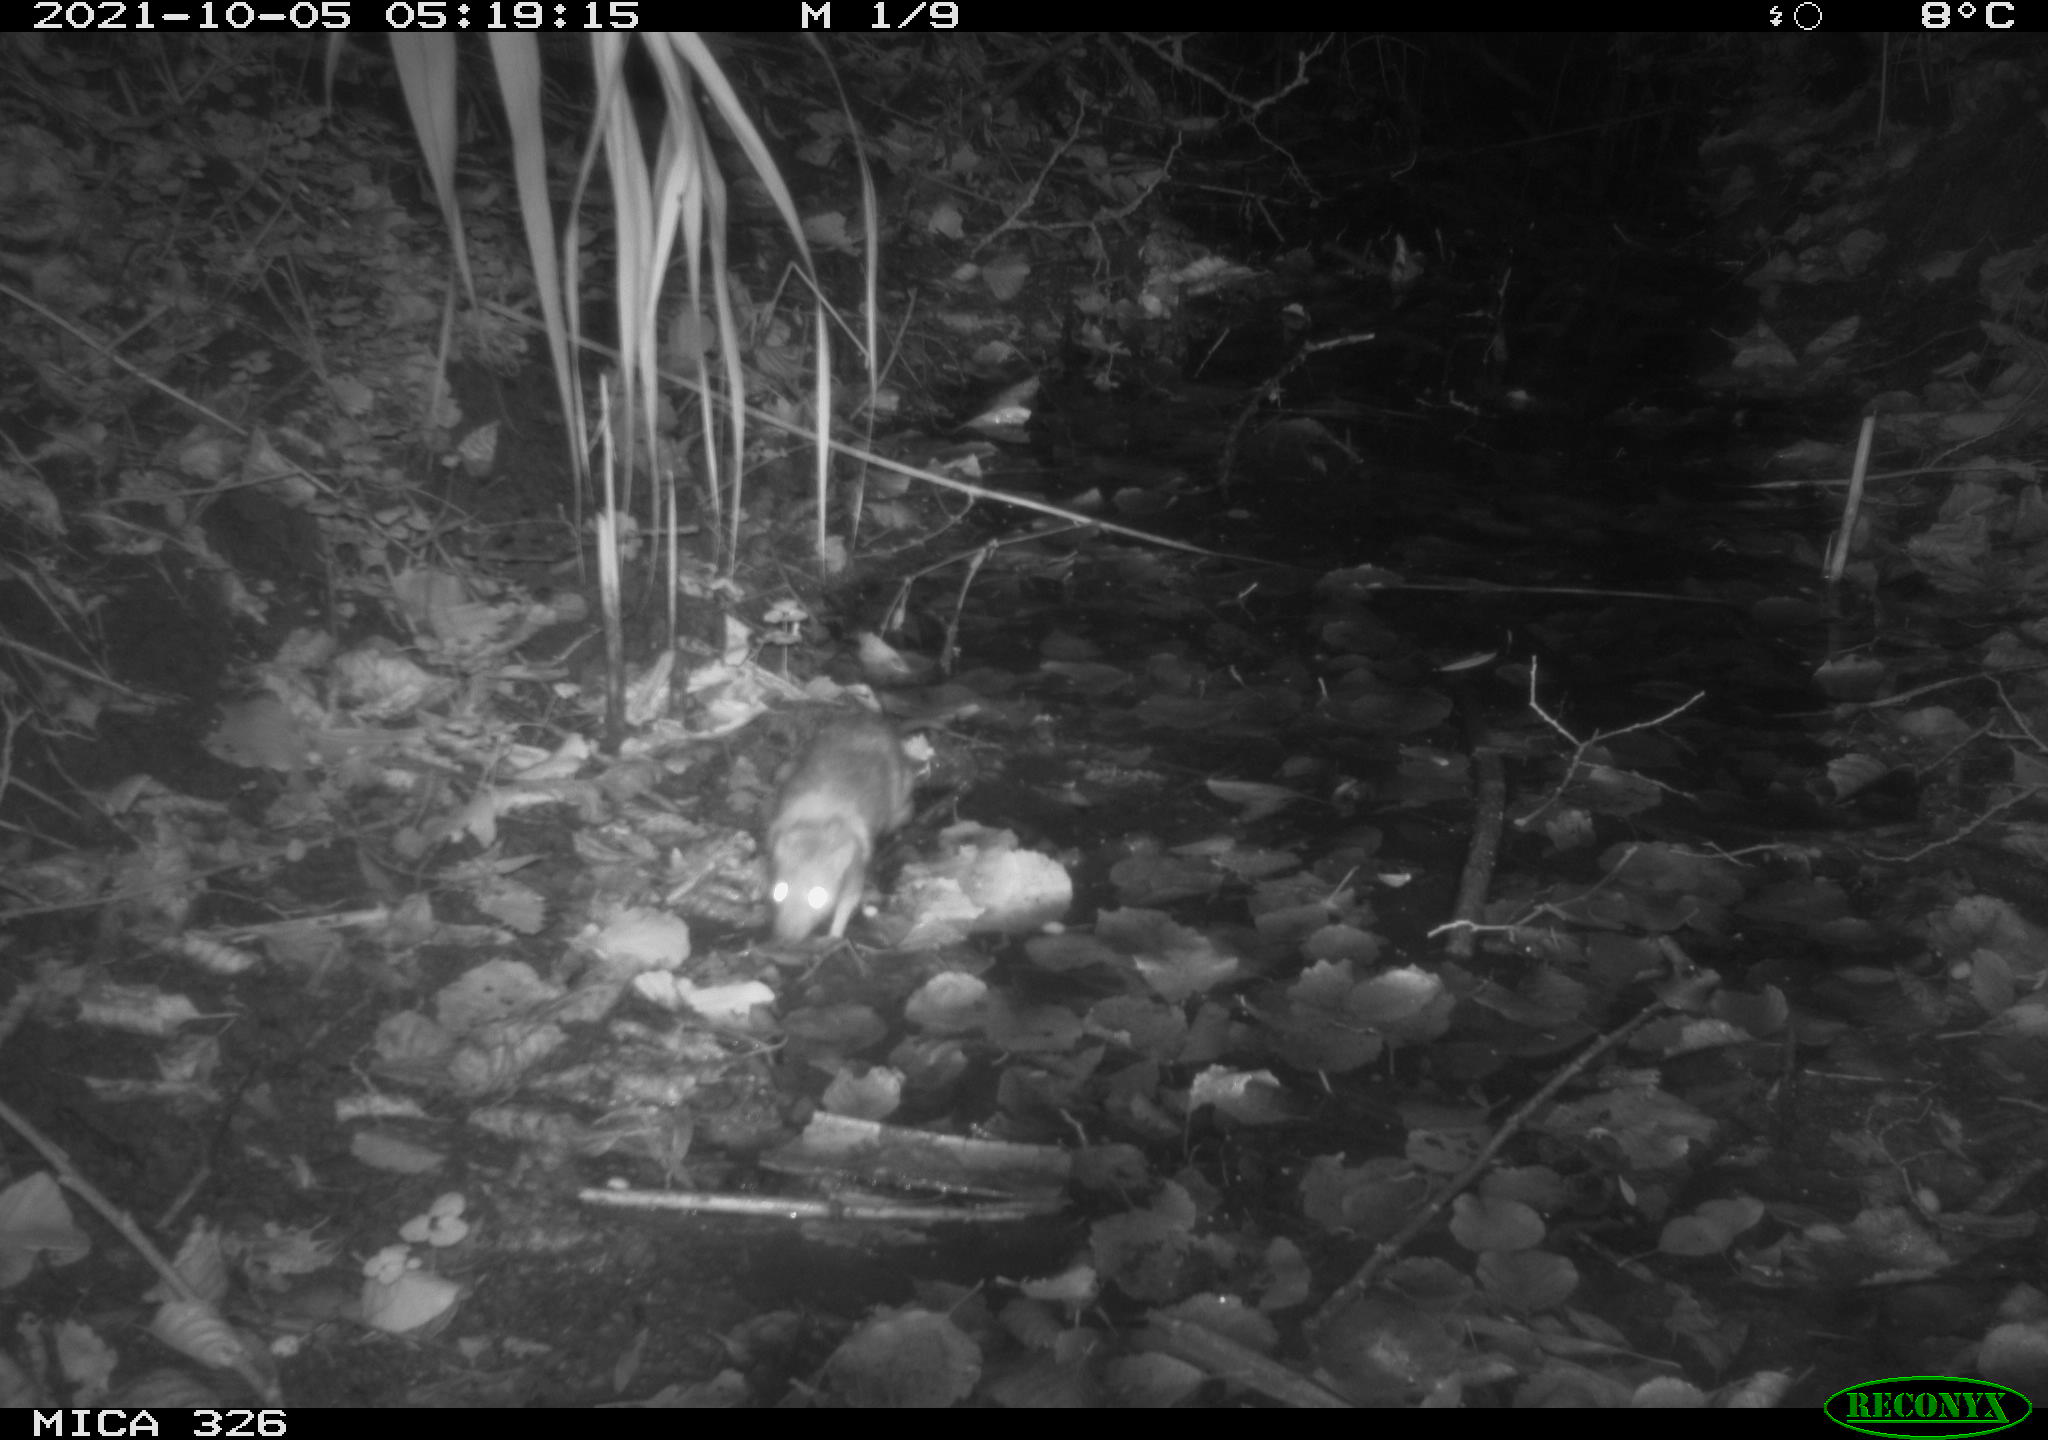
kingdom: Animalia
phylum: Chordata
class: Mammalia
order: Rodentia
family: Muridae
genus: Rattus
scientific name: Rattus norvegicus
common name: Brown rat
